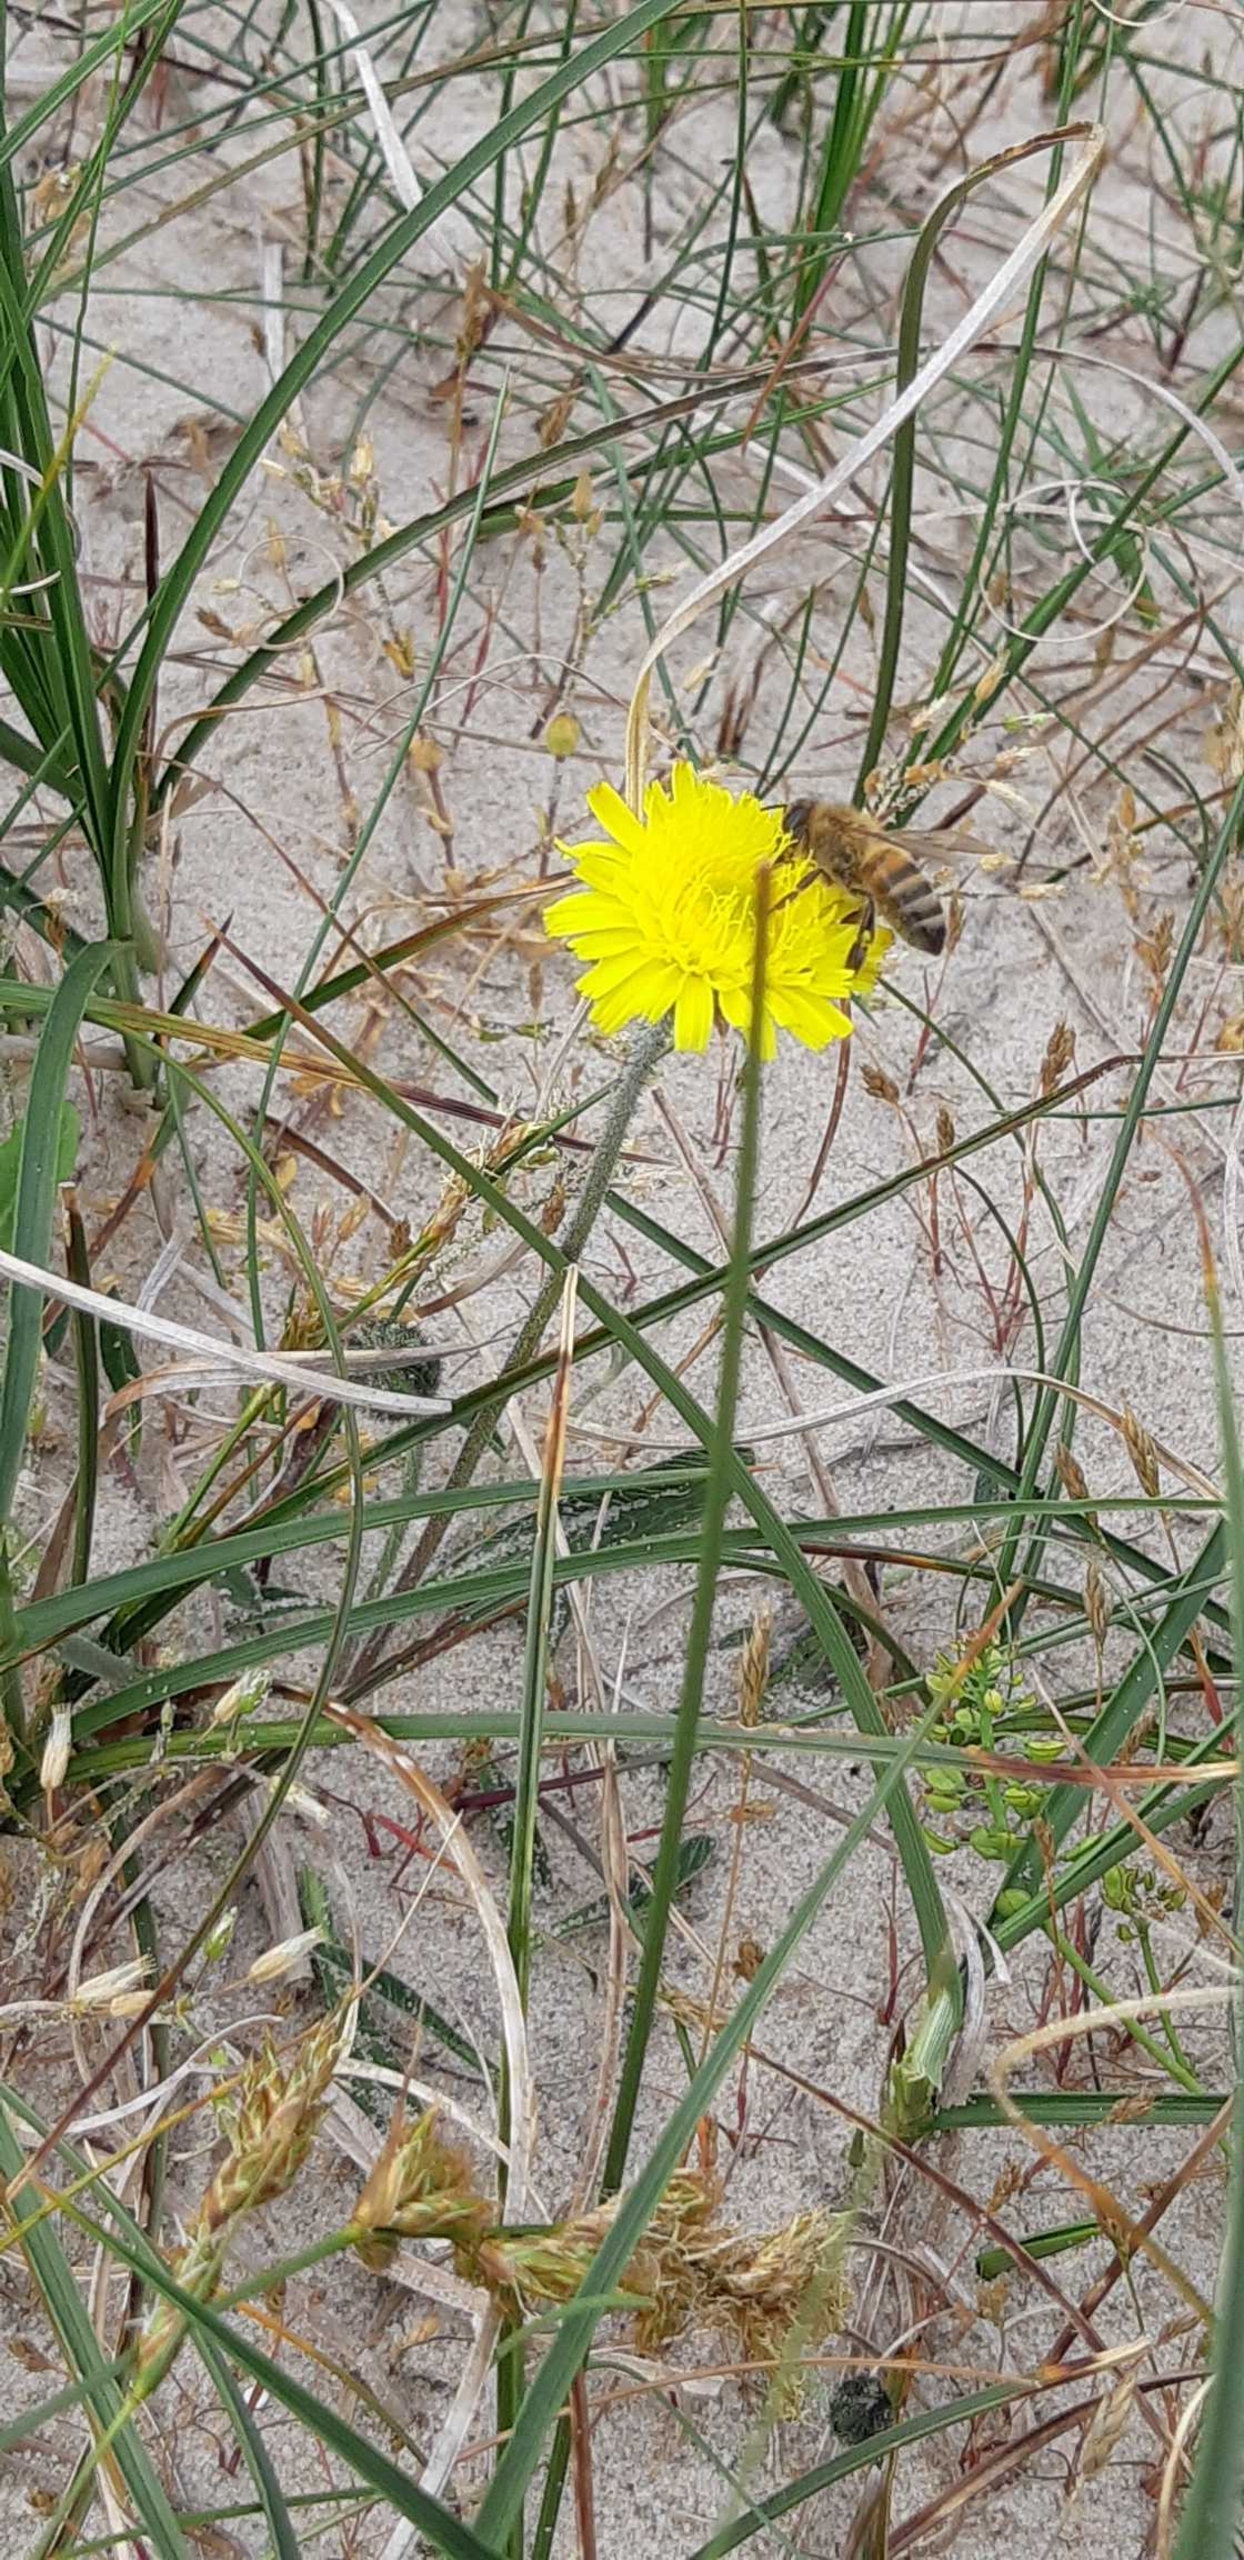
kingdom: Animalia
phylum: Arthropoda
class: Insecta
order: Hymenoptera
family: Apidae
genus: Apis
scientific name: Apis mellifera
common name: Honningbi
